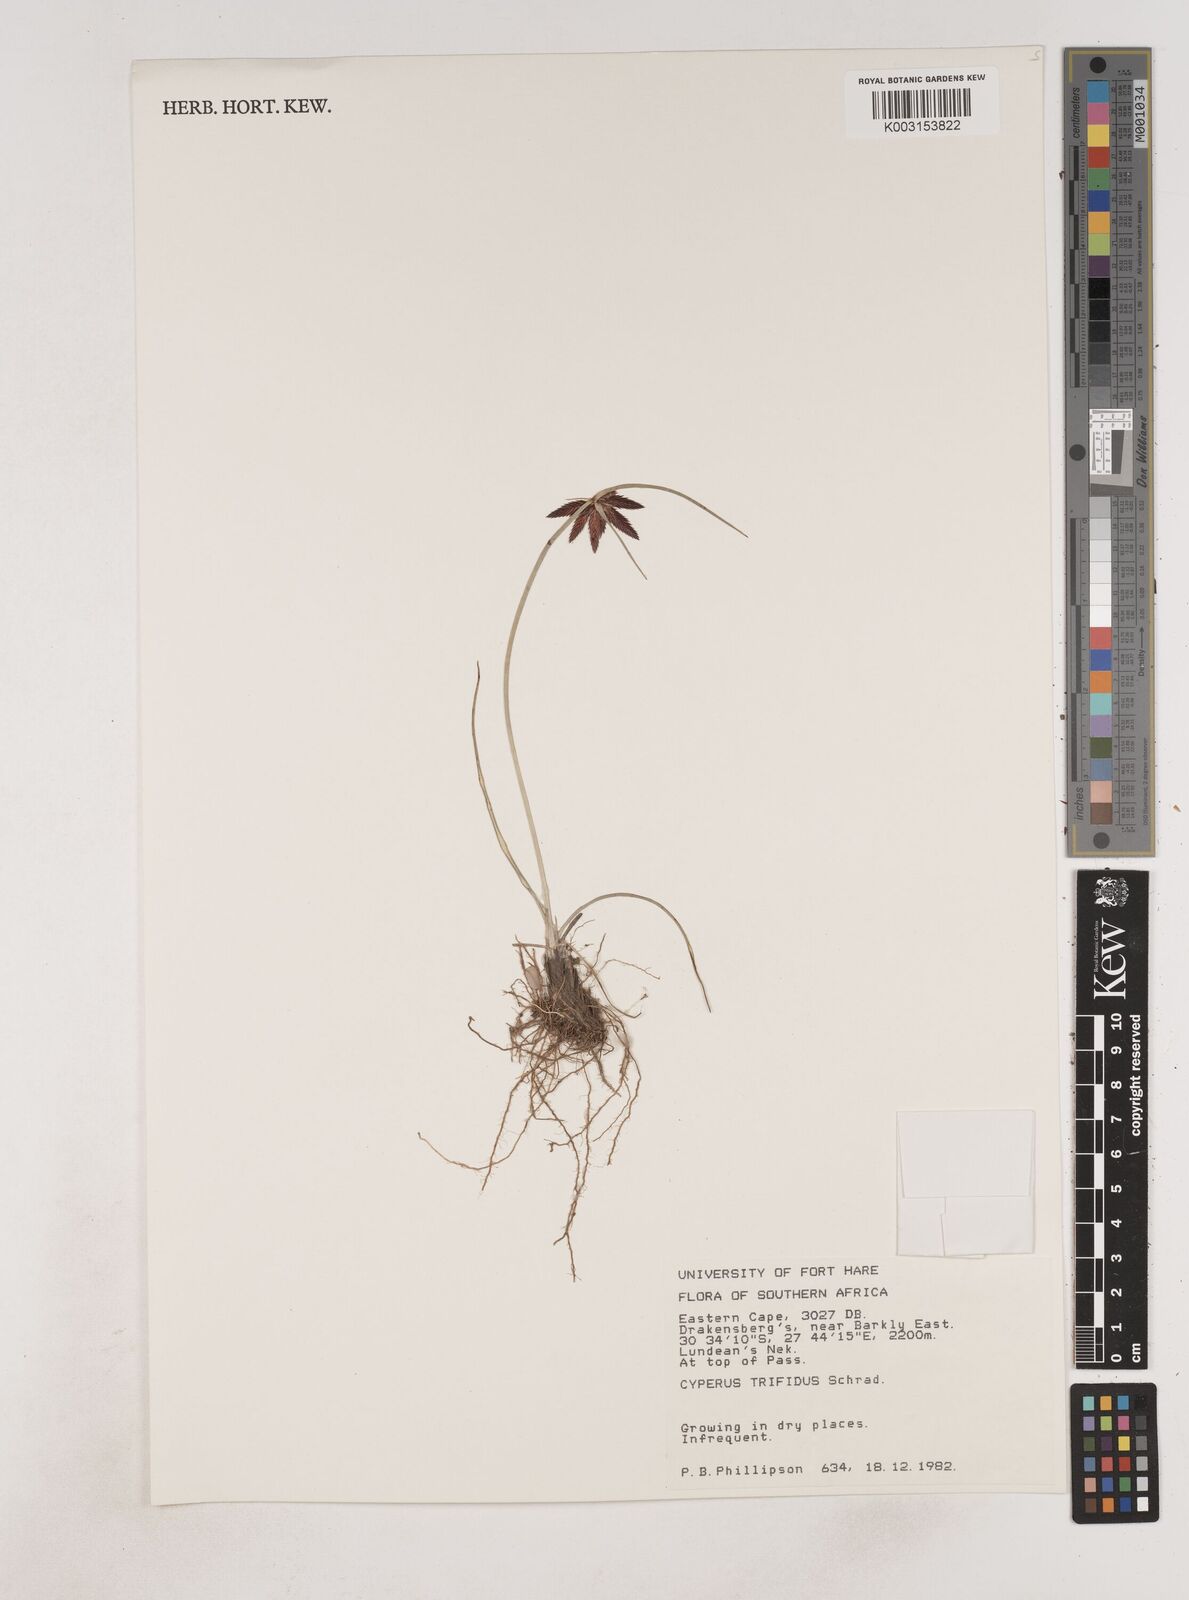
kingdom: Plantae
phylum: Tracheophyta
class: Liliopsida
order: Poales
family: Cyperaceae
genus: Cyperus
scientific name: Cyperus
